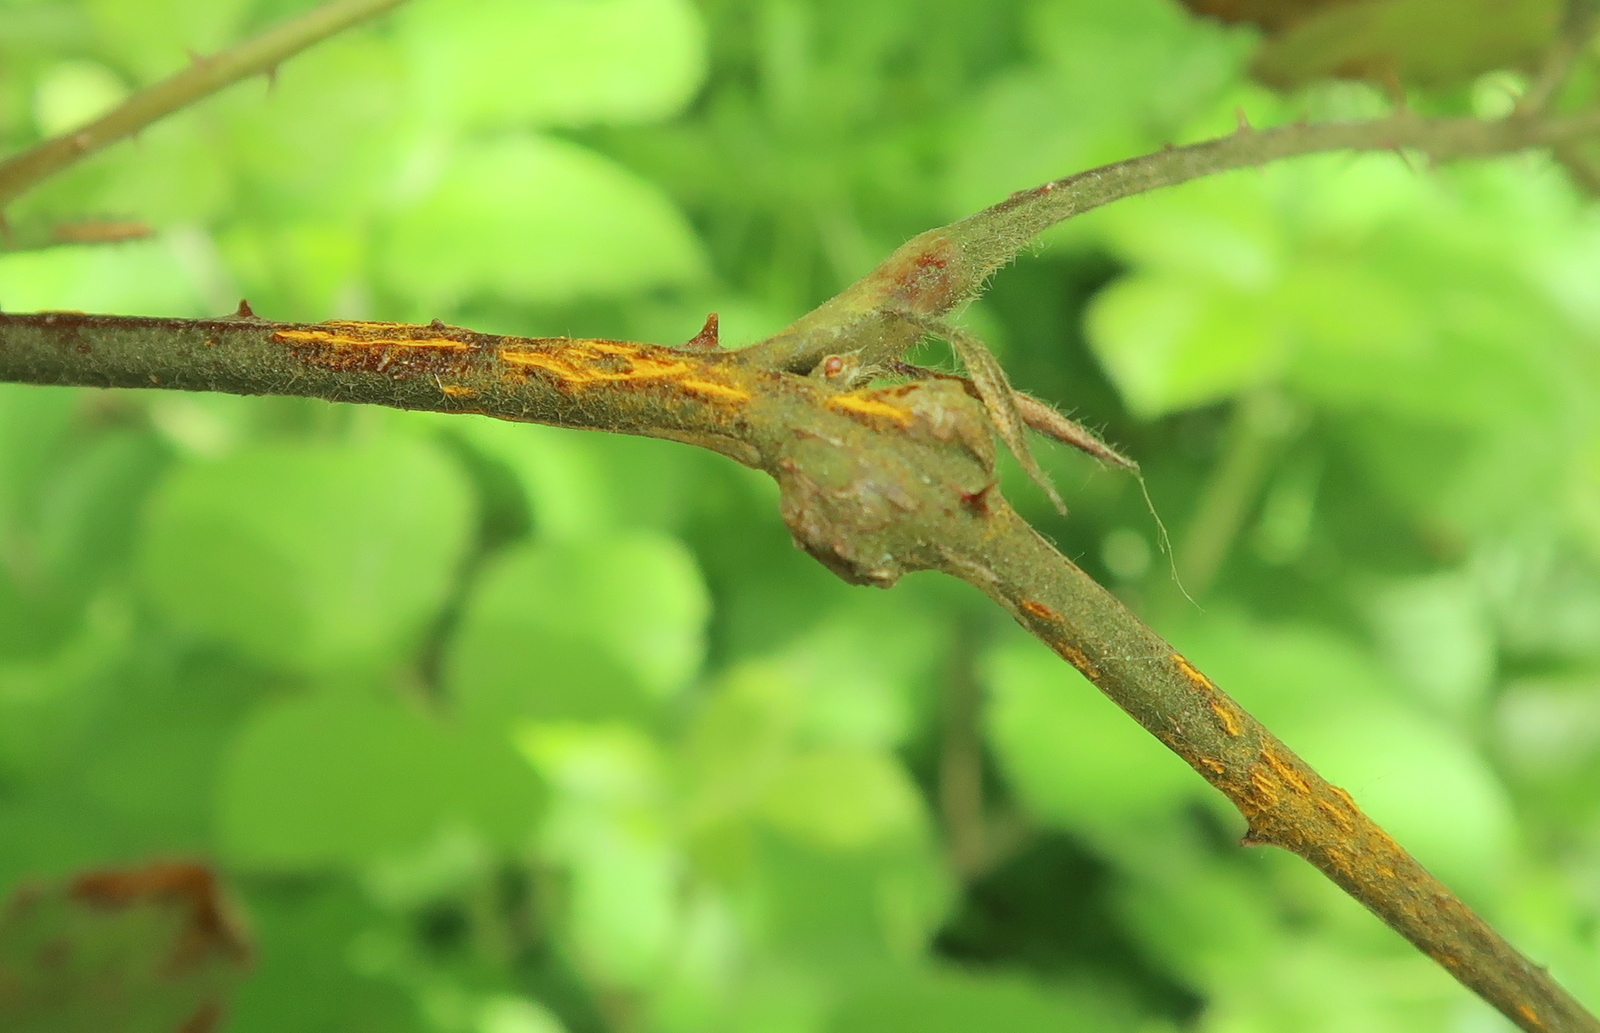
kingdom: Fungi
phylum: Basidiomycota
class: Pucciniomycetes
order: Pucciniales
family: Phragmidiaceae
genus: Kuehneola
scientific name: Kuehneola uredinis
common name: klynger-kædecellerust
